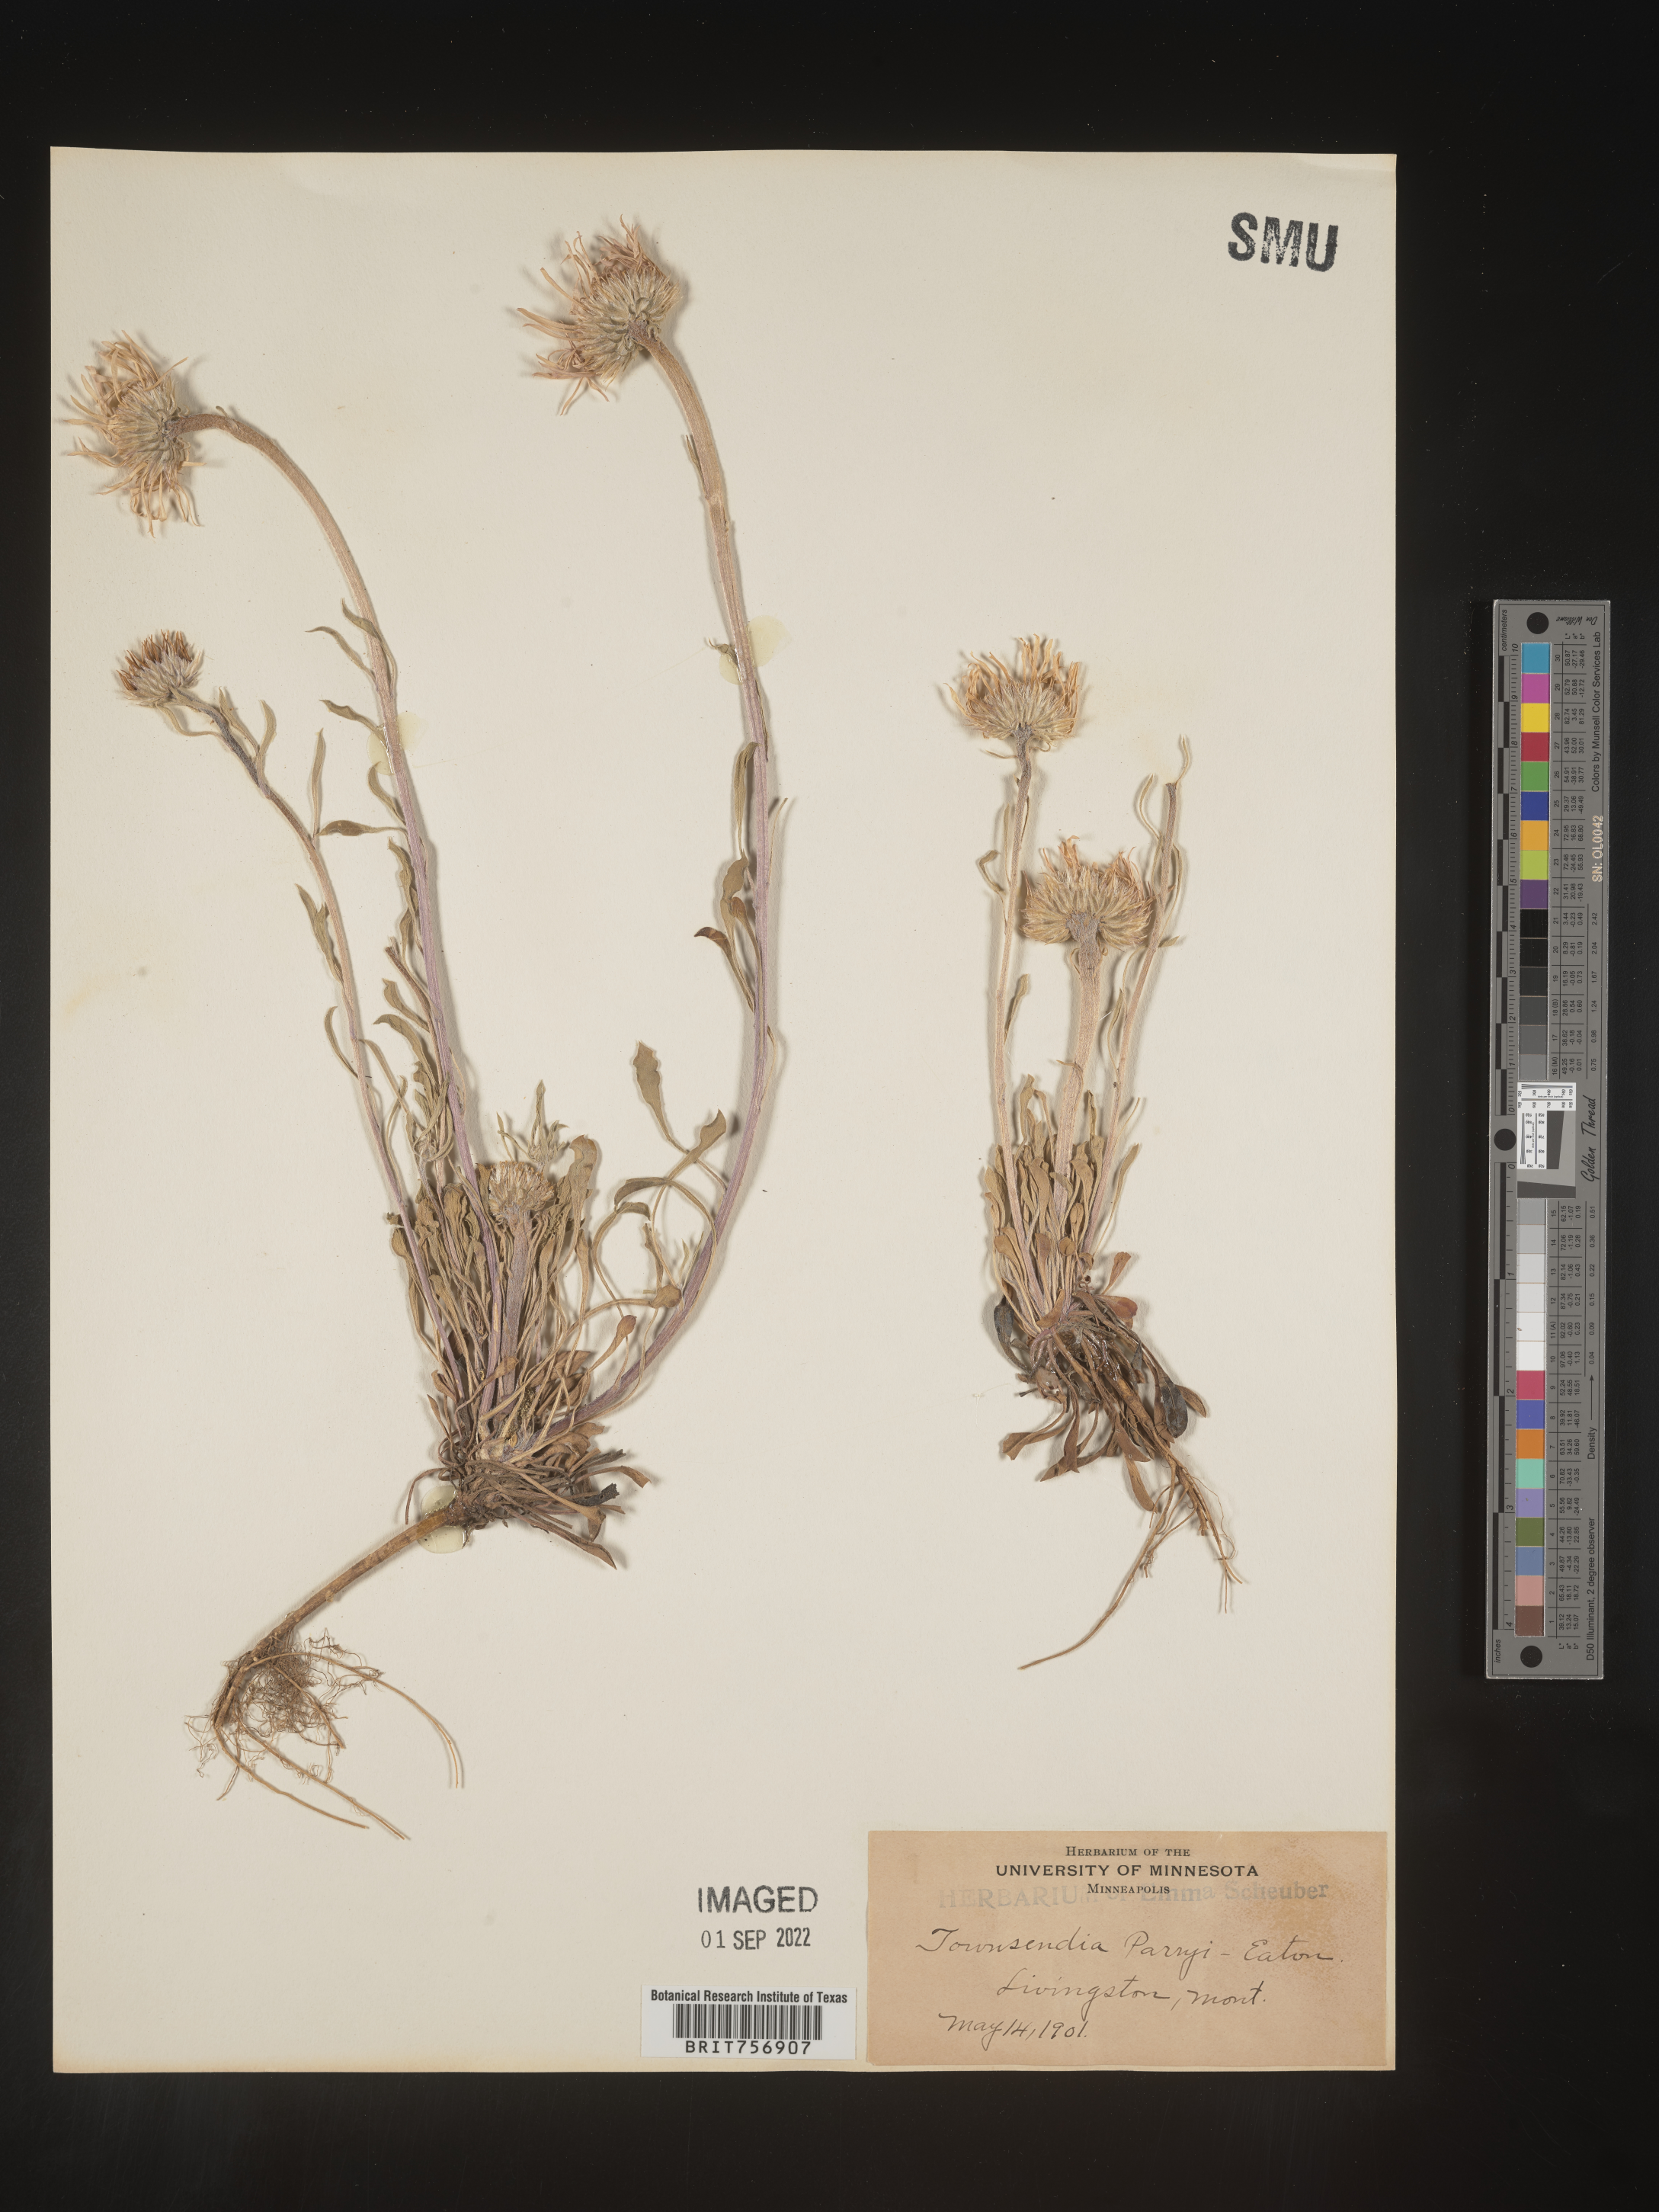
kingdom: Plantae
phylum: Tracheophyta
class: Magnoliopsida
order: Asterales
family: Asteraceae
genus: Townsendia
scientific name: Townsendia parryi
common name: Parry's townsend daisy
